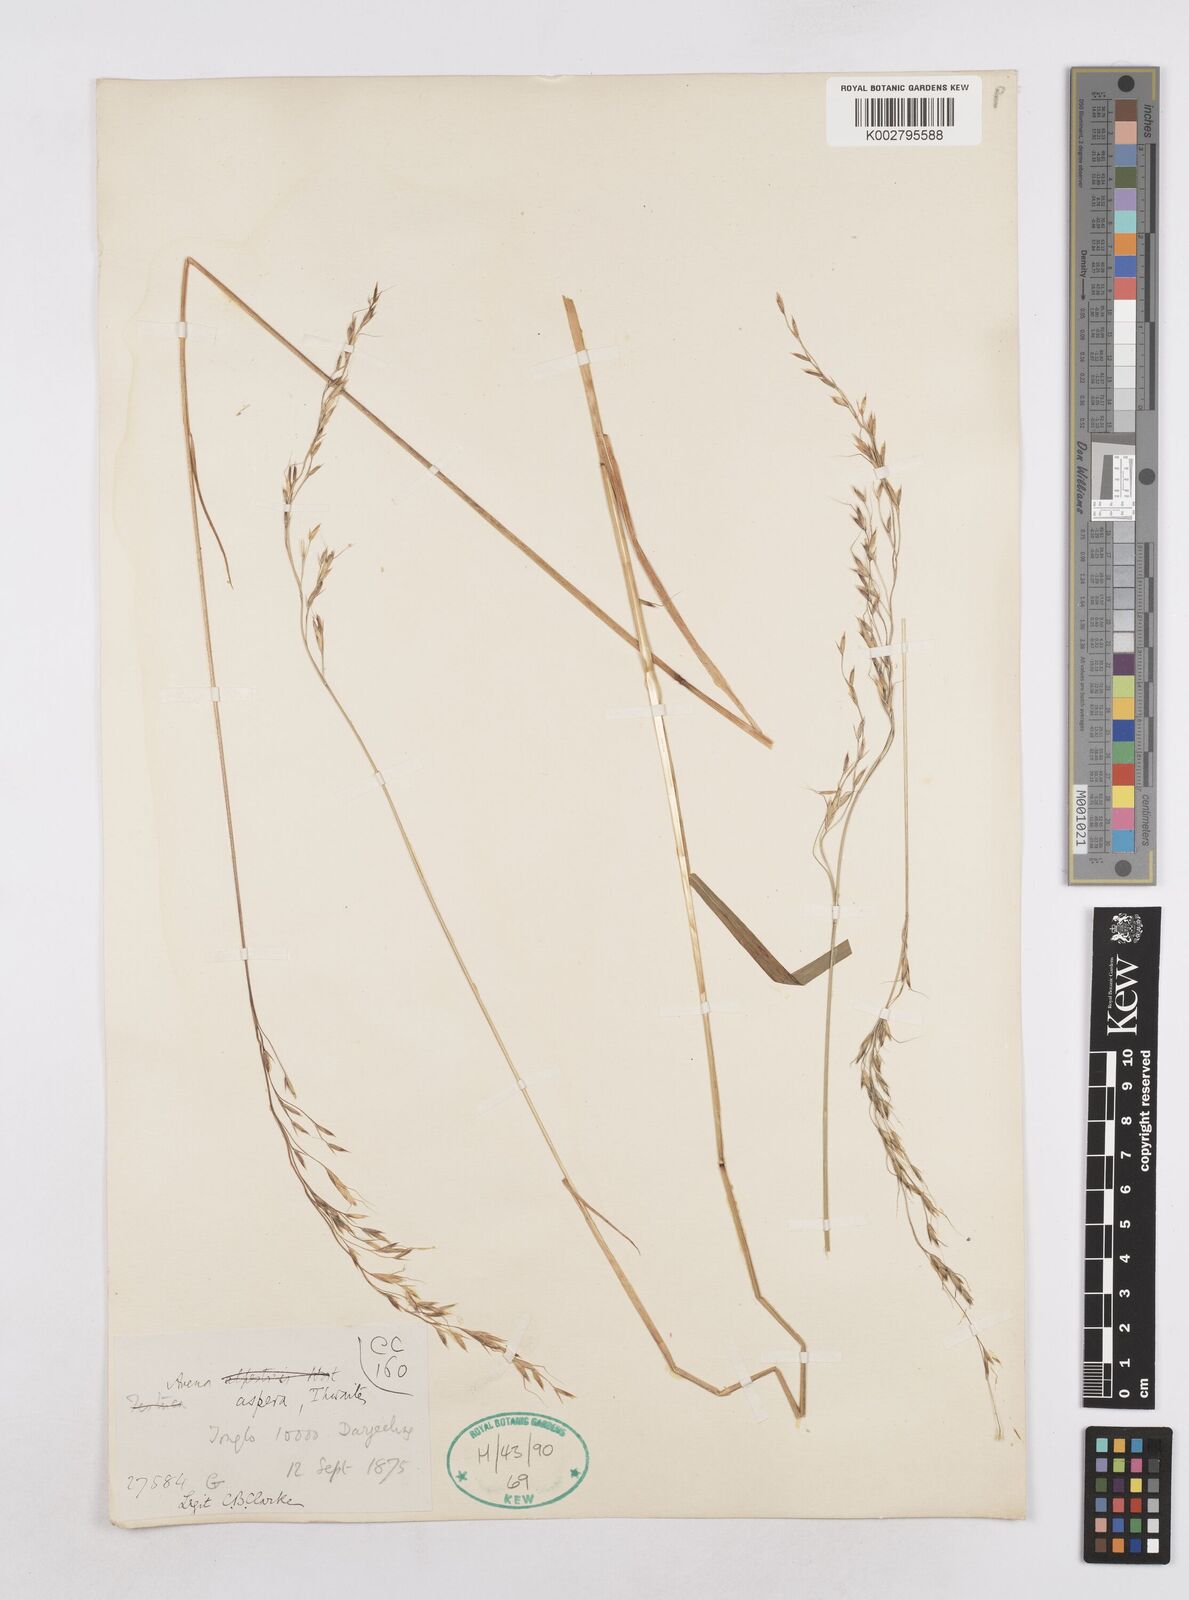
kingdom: Plantae
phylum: Tracheophyta
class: Liliopsida
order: Poales
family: Poaceae
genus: Trisetopsis
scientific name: Trisetopsis junghuhnii
